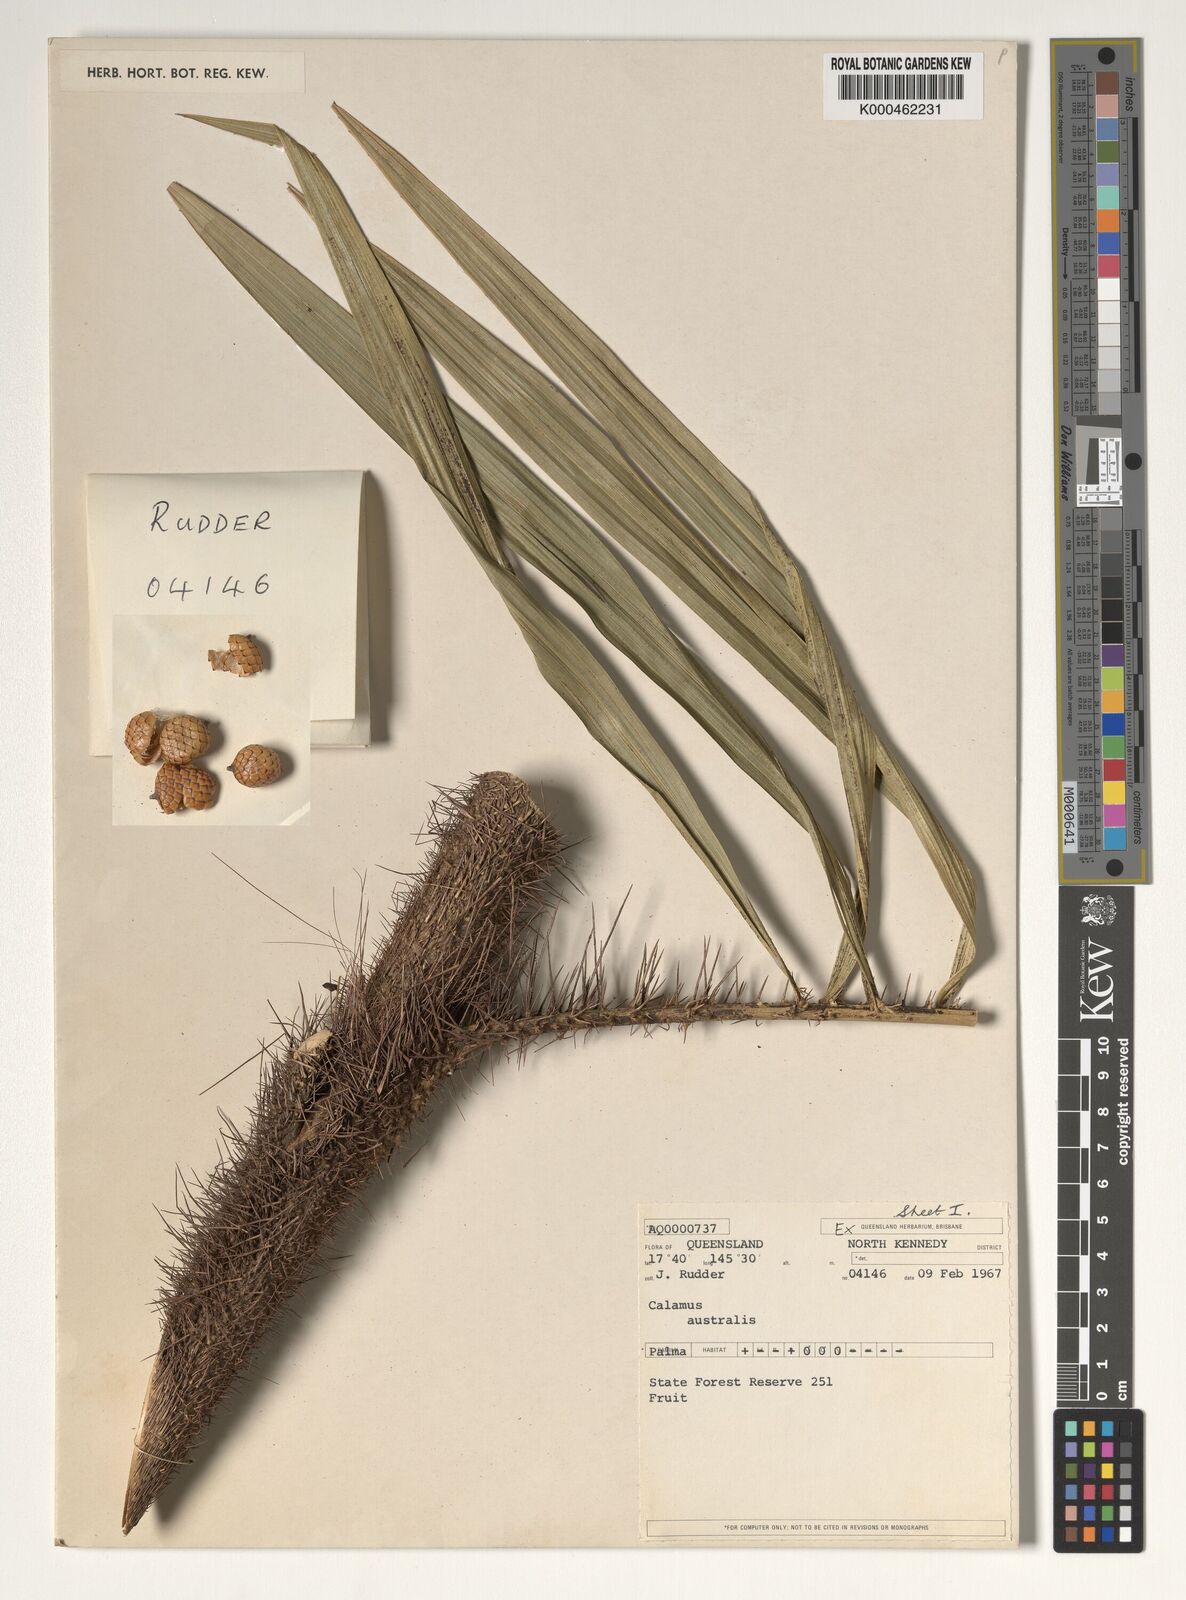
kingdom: Plantae
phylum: Tracheophyta
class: Liliopsida
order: Arecales
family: Arecaceae
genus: Calamus
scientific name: Calamus australis
